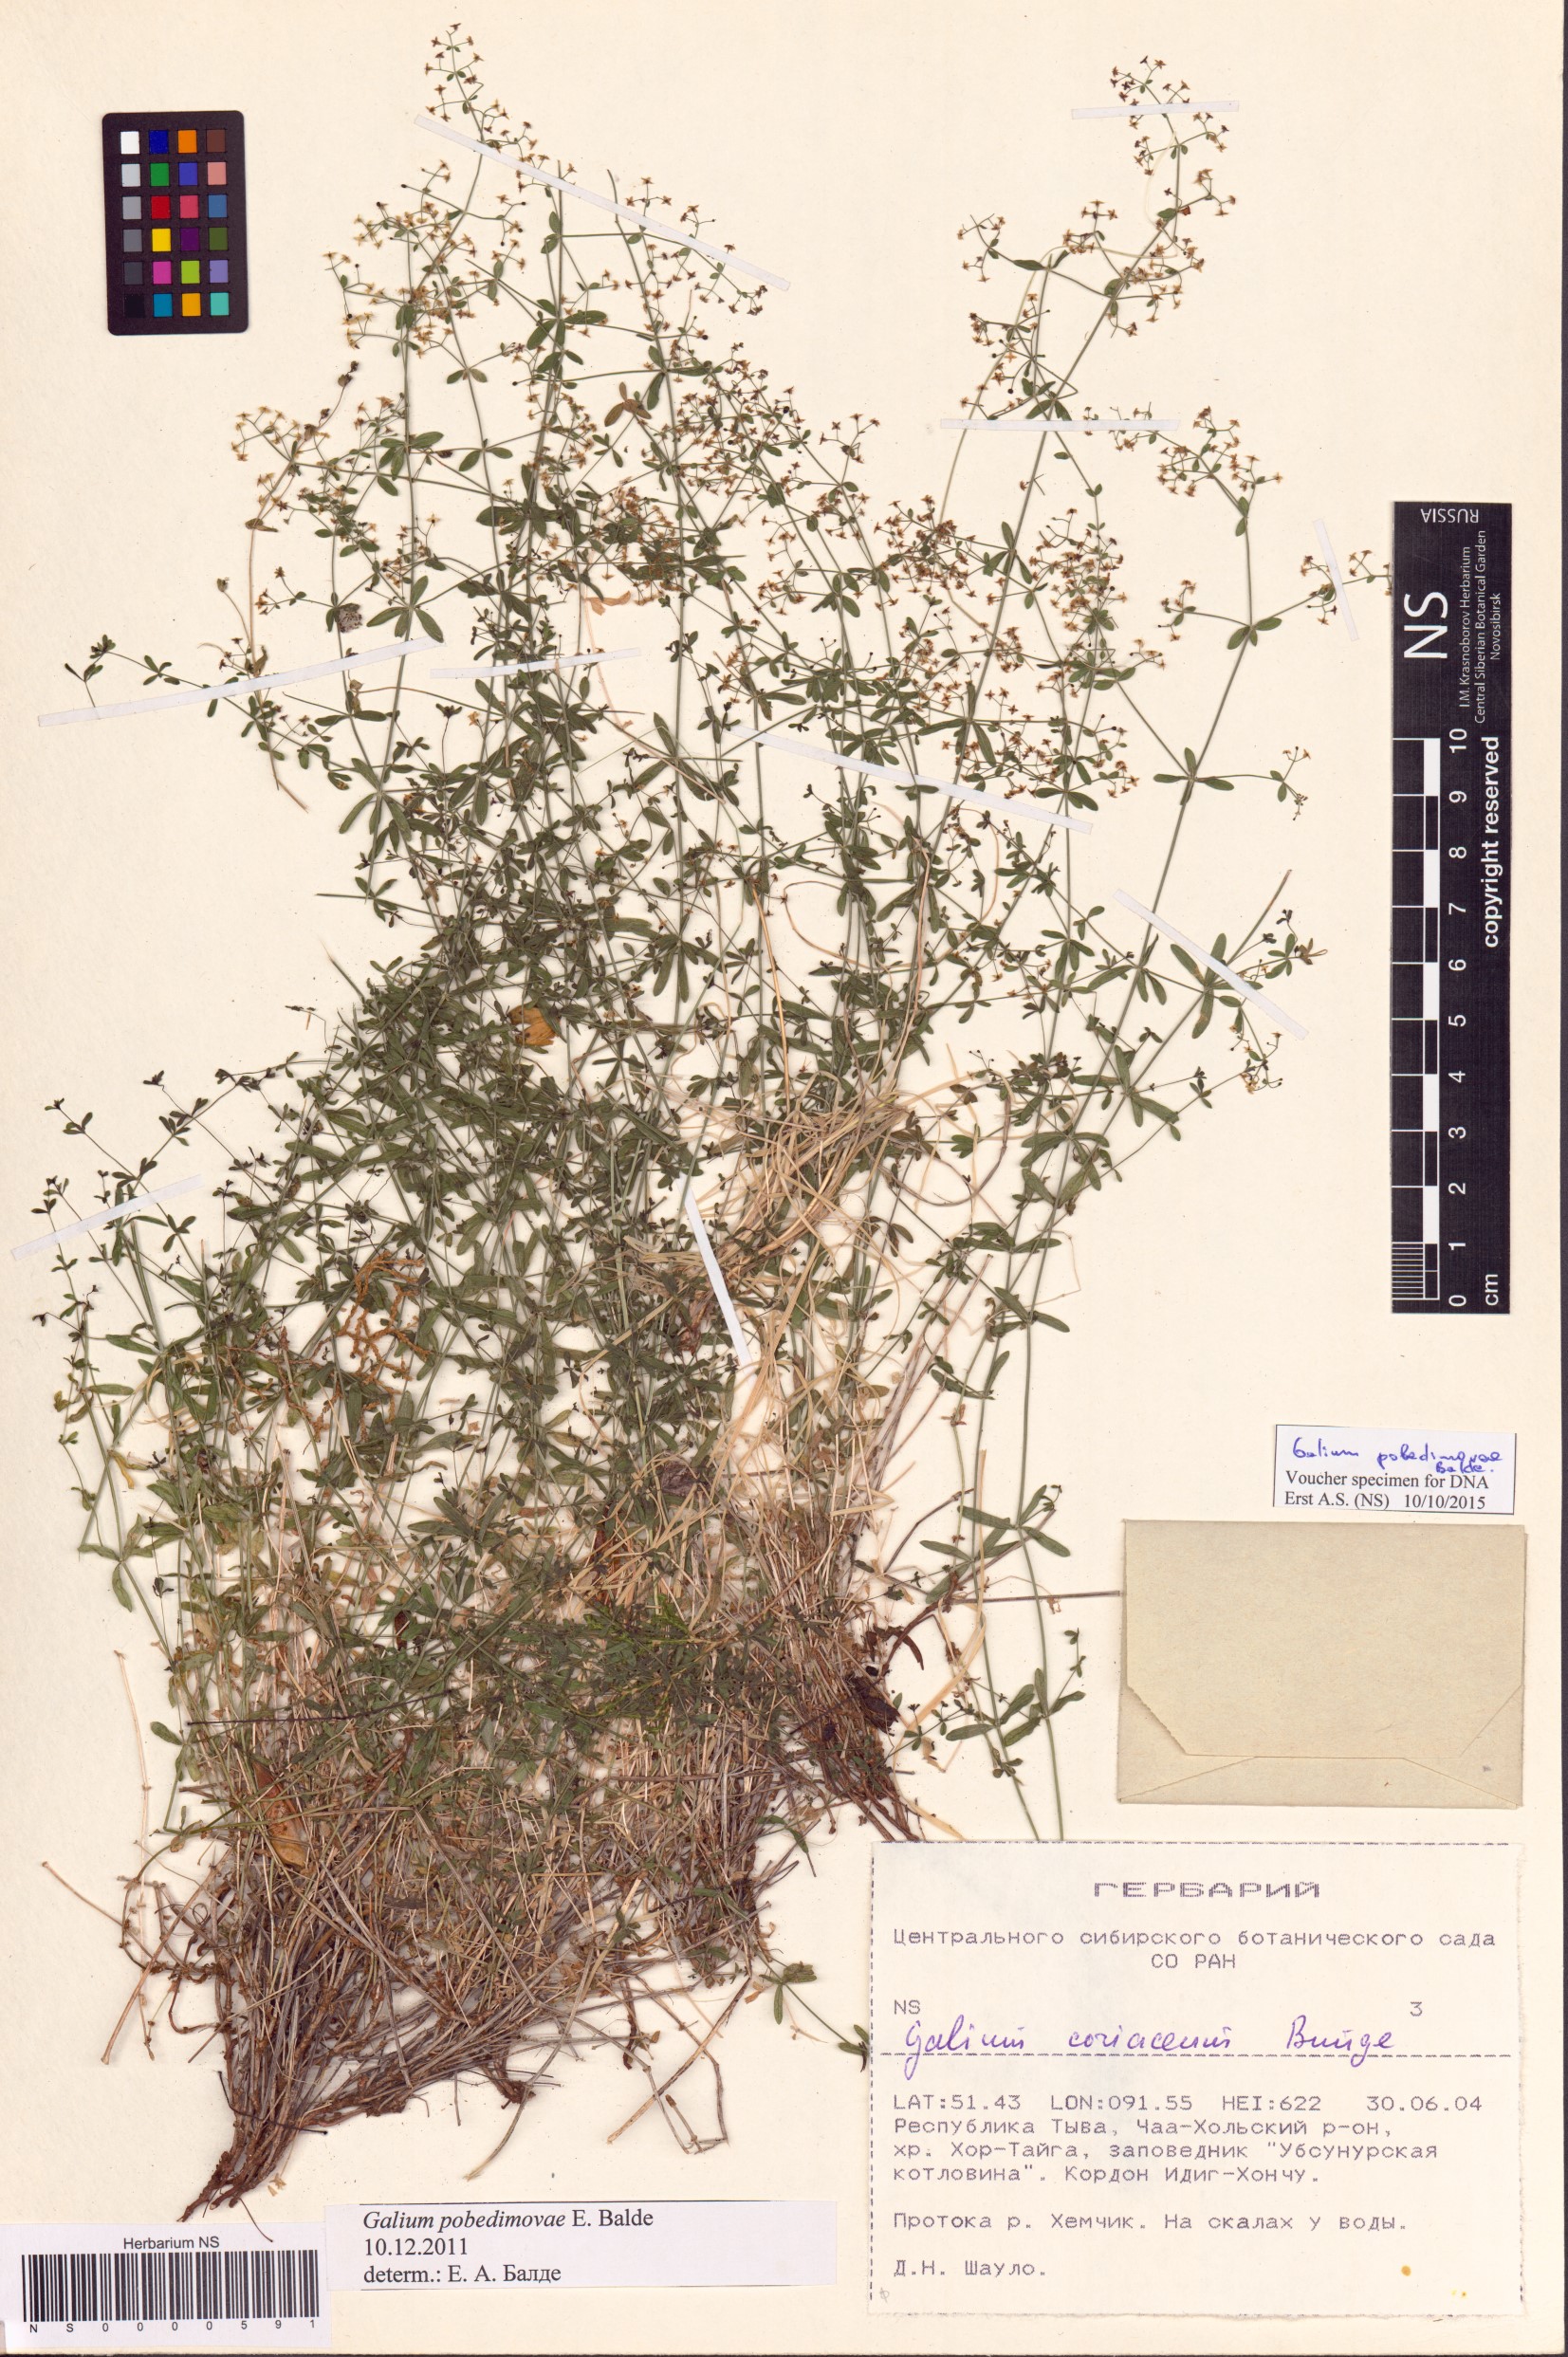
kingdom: Plantae
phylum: Tracheophyta
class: Magnoliopsida
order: Gentianales
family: Rubiaceae
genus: Galium
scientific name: Galium pobedimovae
